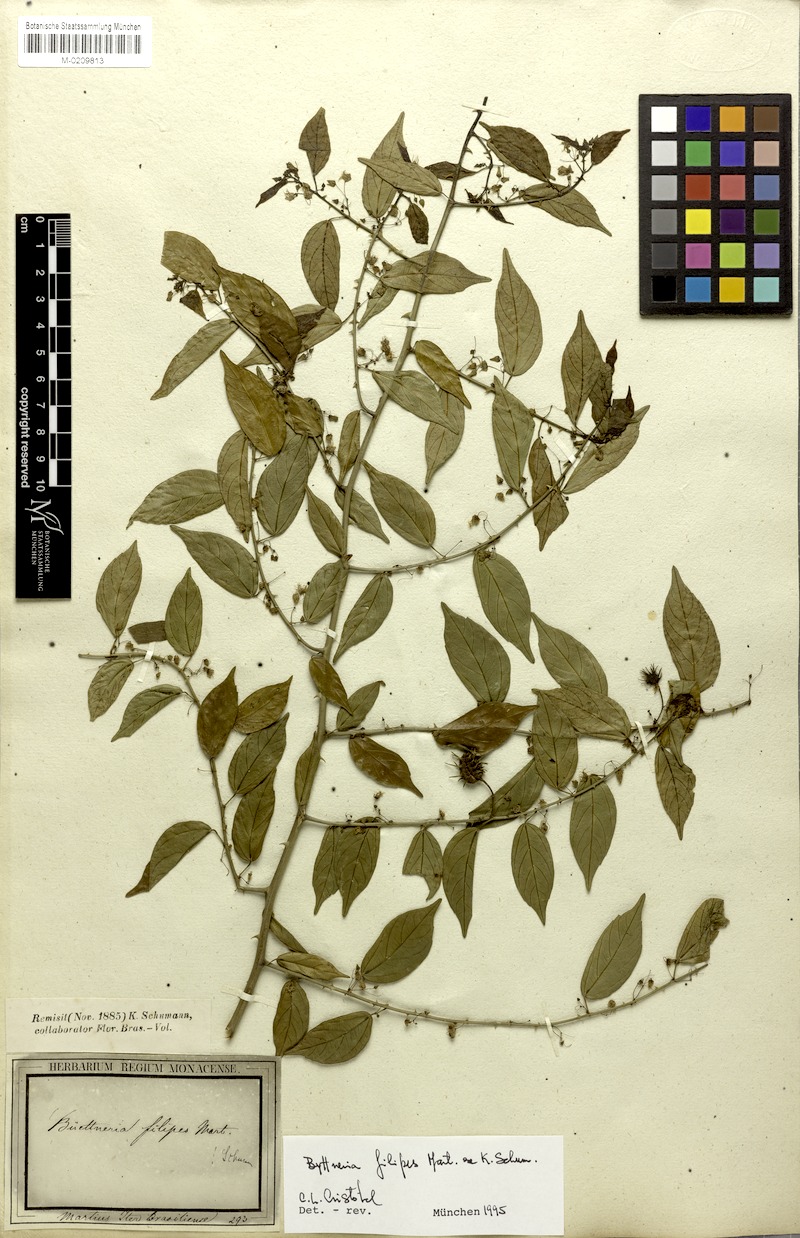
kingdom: Plantae
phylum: Tracheophyta
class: Magnoliopsida
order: Malvales
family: Malvaceae
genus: Byttneria
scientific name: Byttneria filipes
